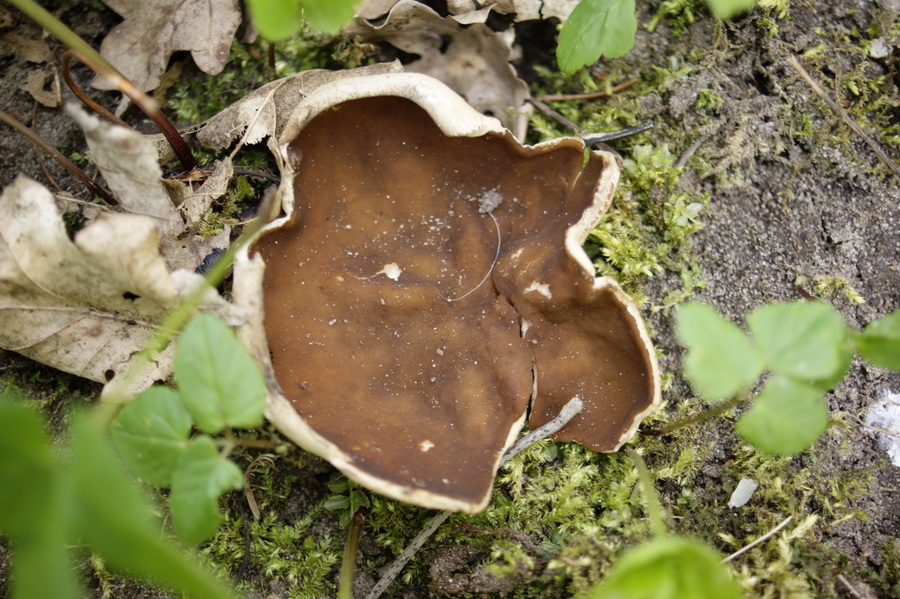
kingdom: Fungi
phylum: Ascomycota
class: Pezizomycetes
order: Pezizales
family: Morchellaceae
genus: Disciotis
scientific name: Disciotis venosa
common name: klor-bægermorkel
